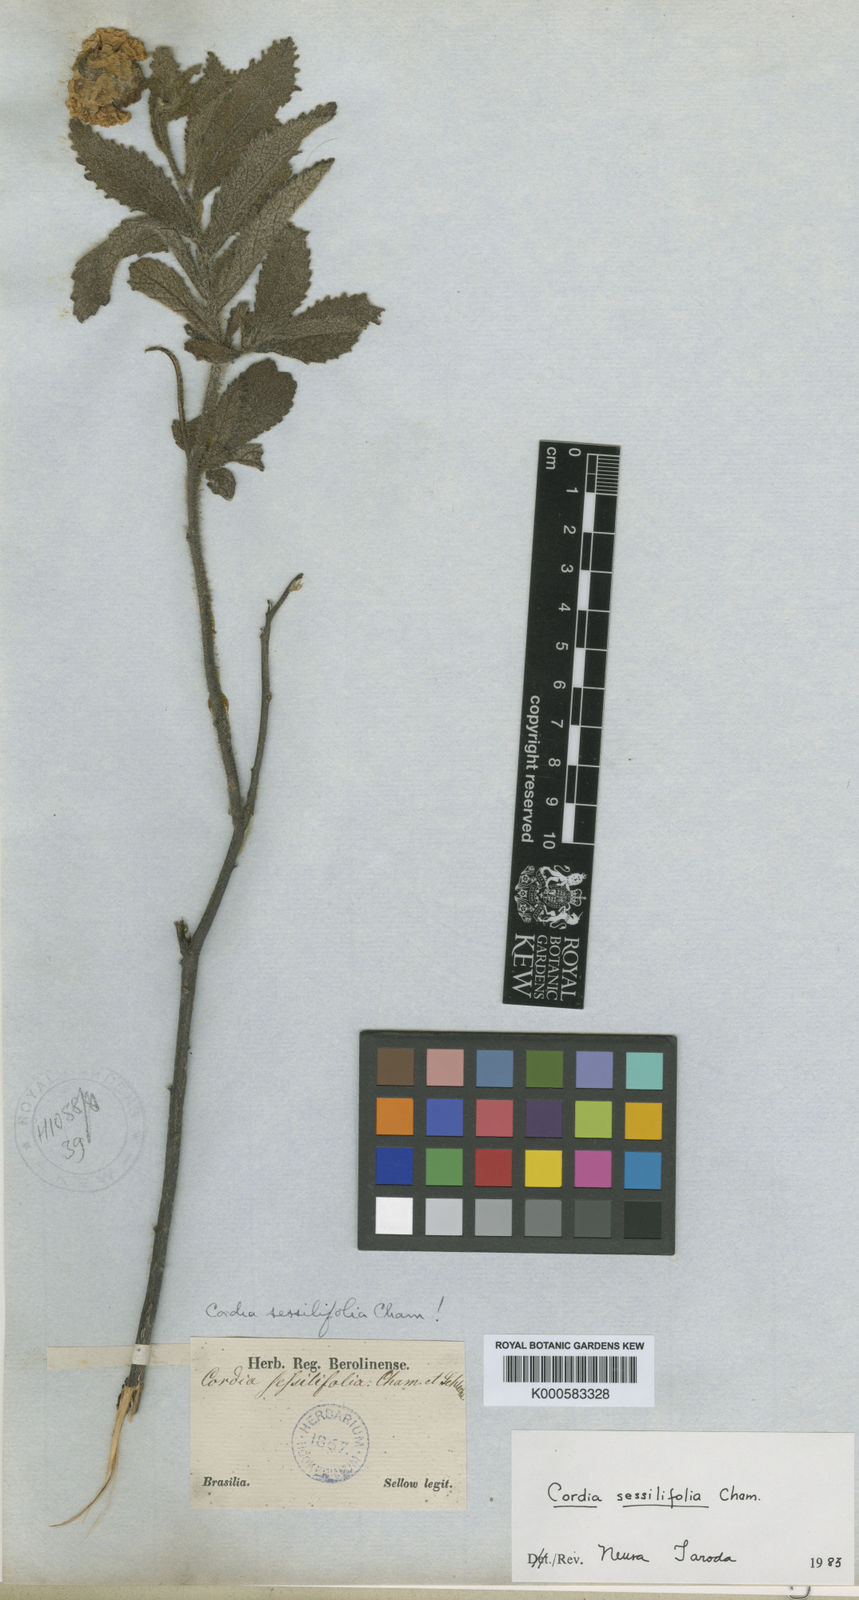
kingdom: Plantae
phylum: Tracheophyta
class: Magnoliopsida
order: Boraginales
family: Cordiaceae
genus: Varronia
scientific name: Varronia sessilifolia
